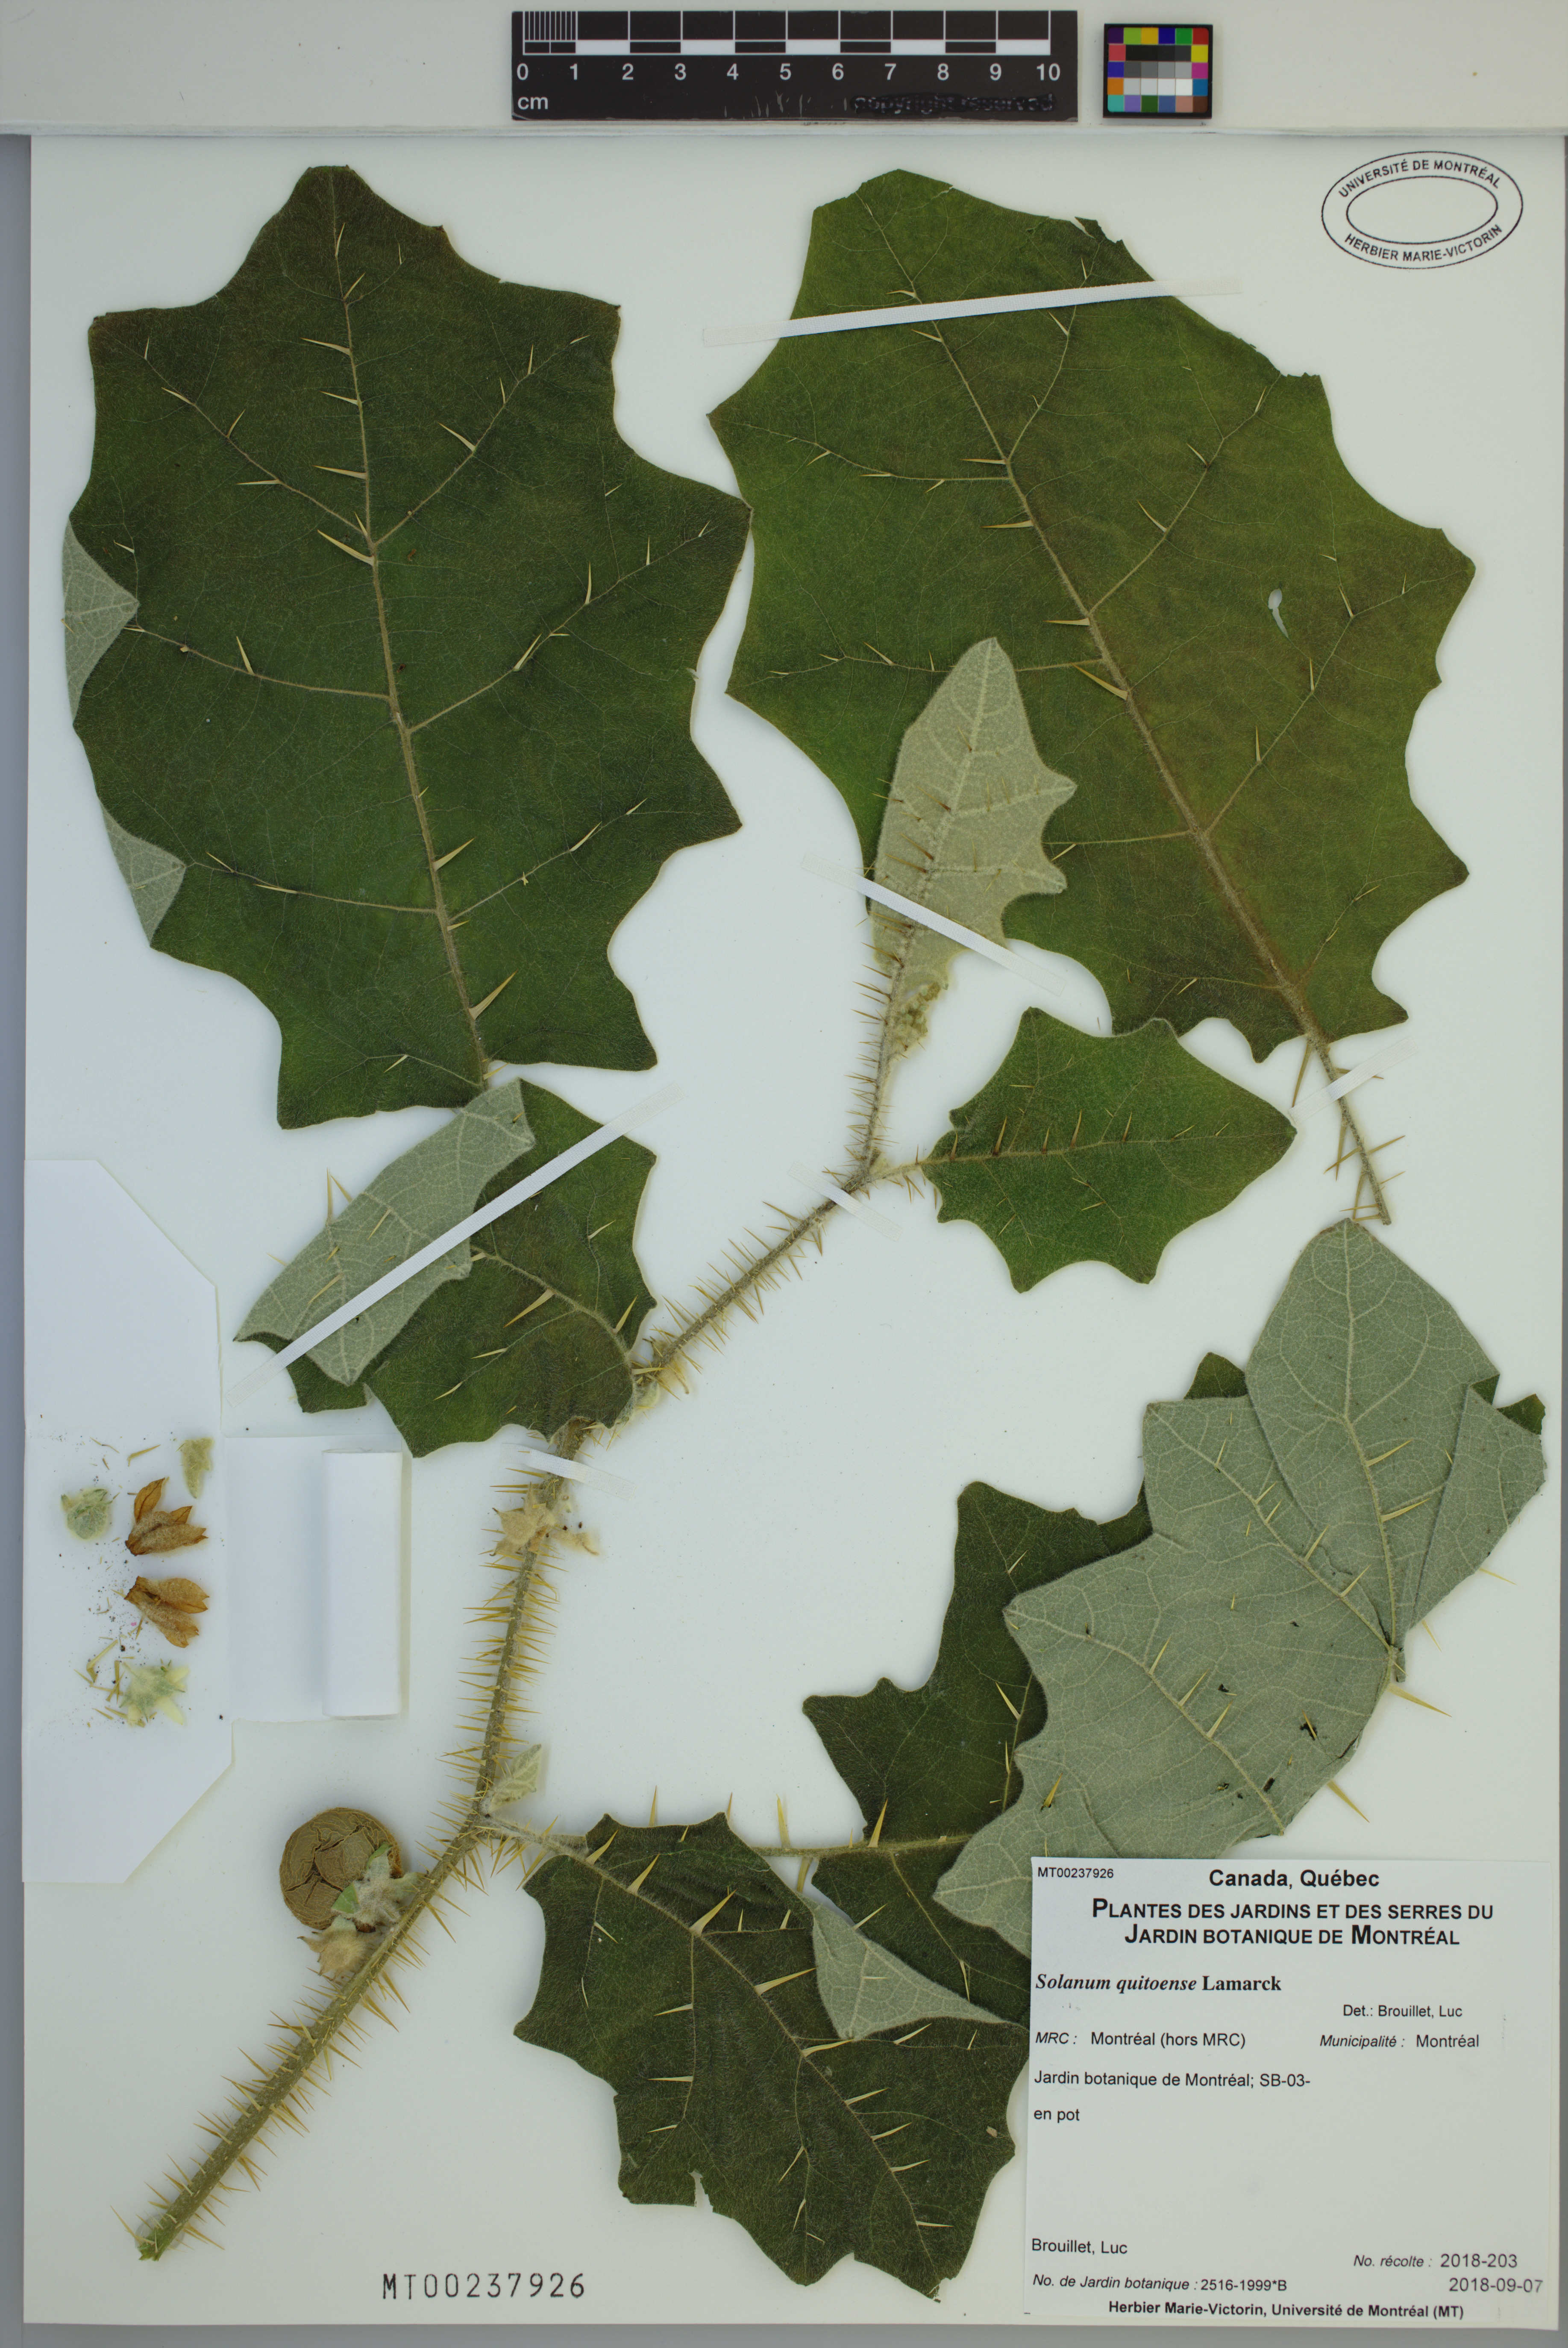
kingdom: Plantae
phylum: Tracheophyta
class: Magnoliopsida
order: Solanales
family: Solanaceae
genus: Solanum
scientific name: Solanum quitoense
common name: Quito-orange
